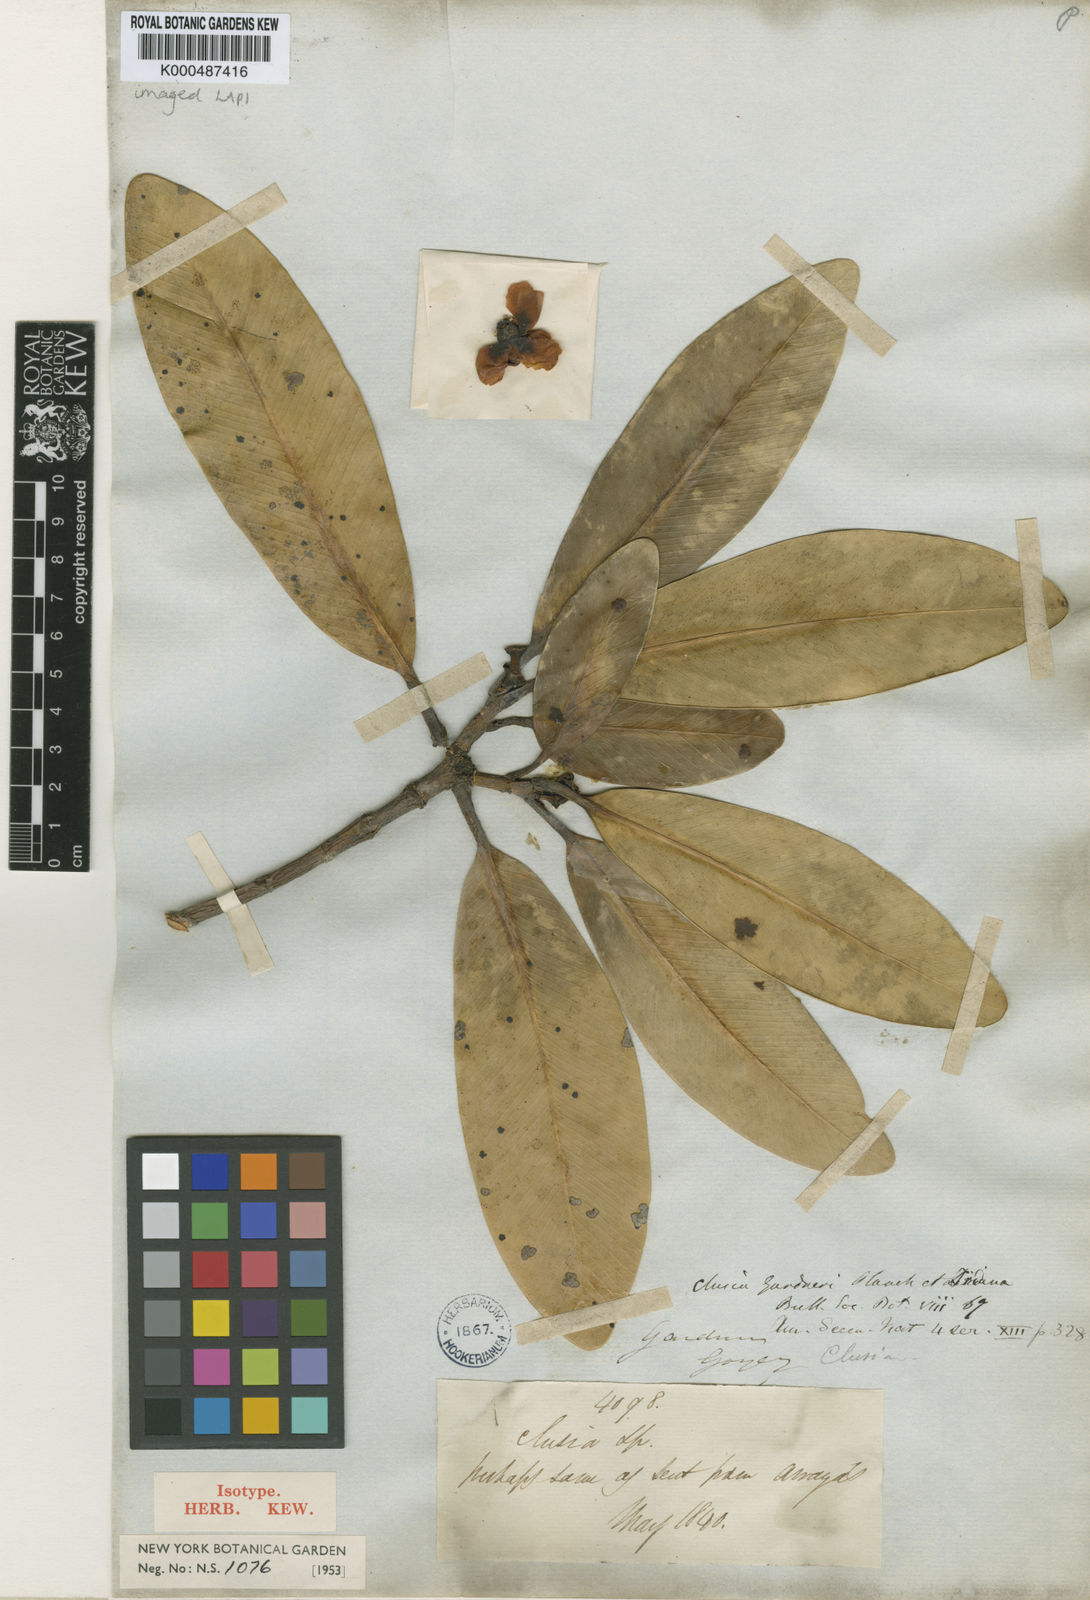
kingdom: Plantae
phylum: Tracheophyta
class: Magnoliopsida
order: Malpighiales
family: Clusiaceae
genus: Clusia
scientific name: Clusia gardneri
